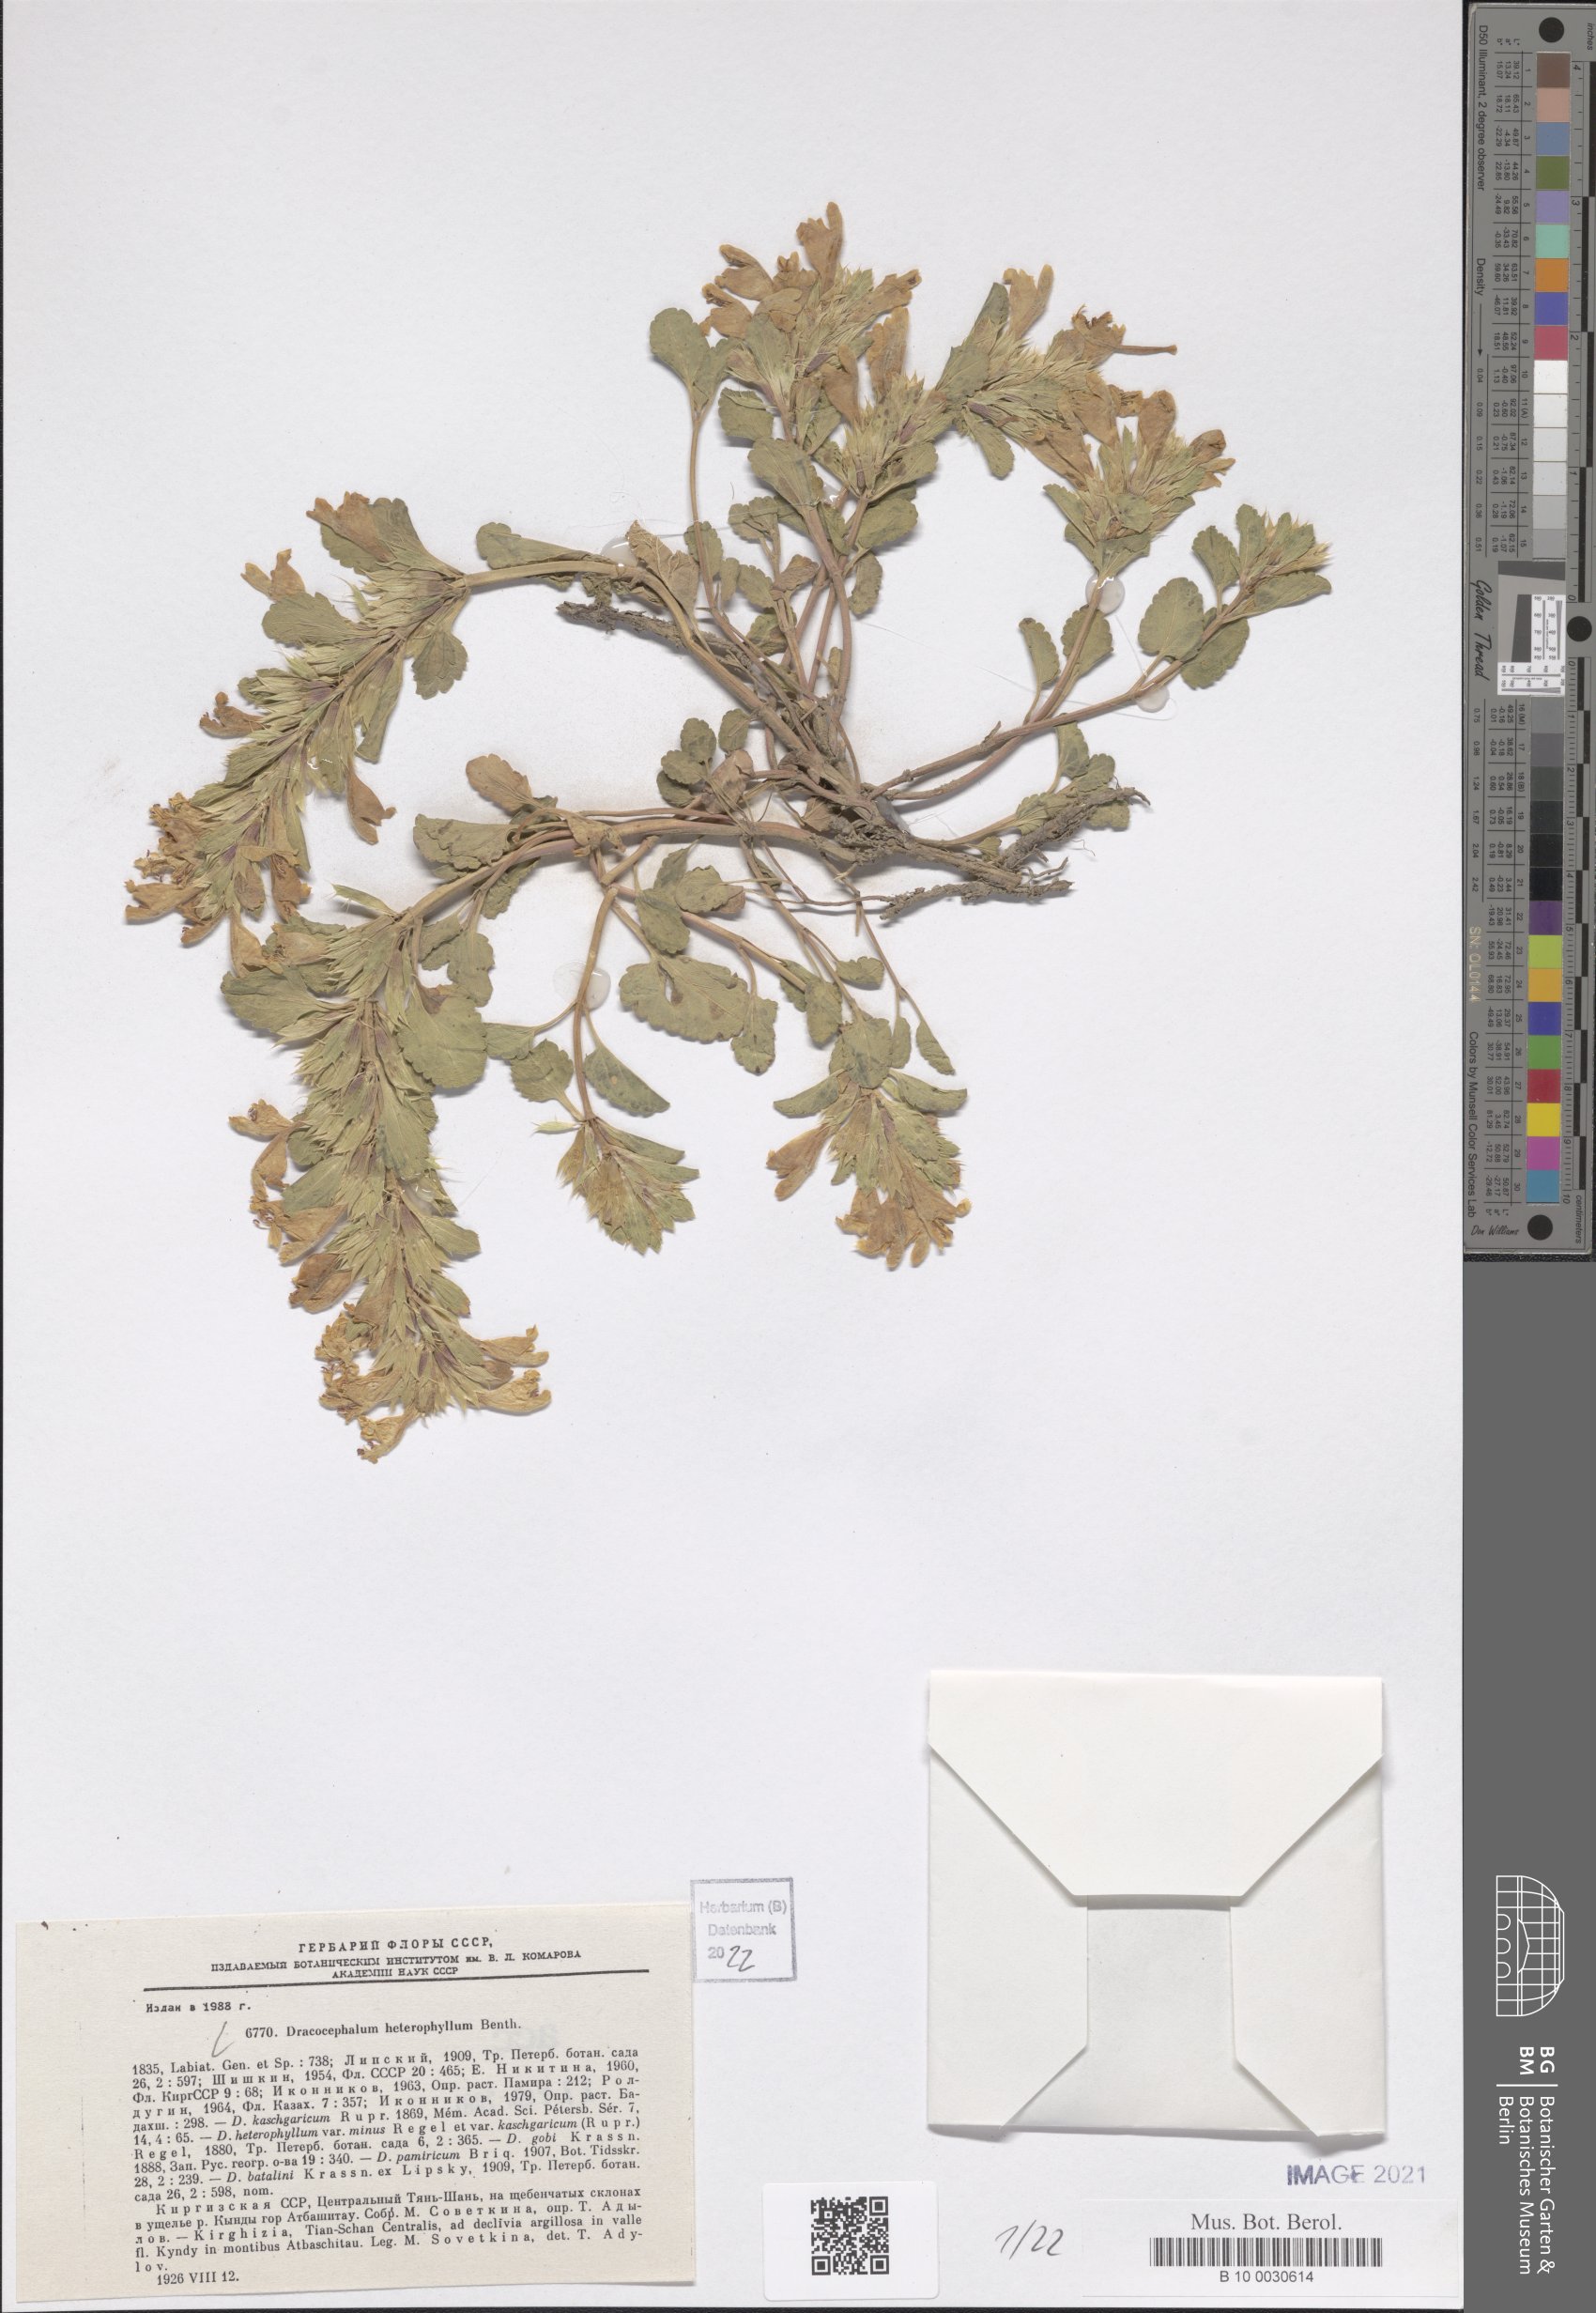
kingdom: Plantae
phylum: Tracheophyta
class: Magnoliopsida
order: Lamiales
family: Lamiaceae
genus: Dracocephalum
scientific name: Dracocephalum heterophyllum
